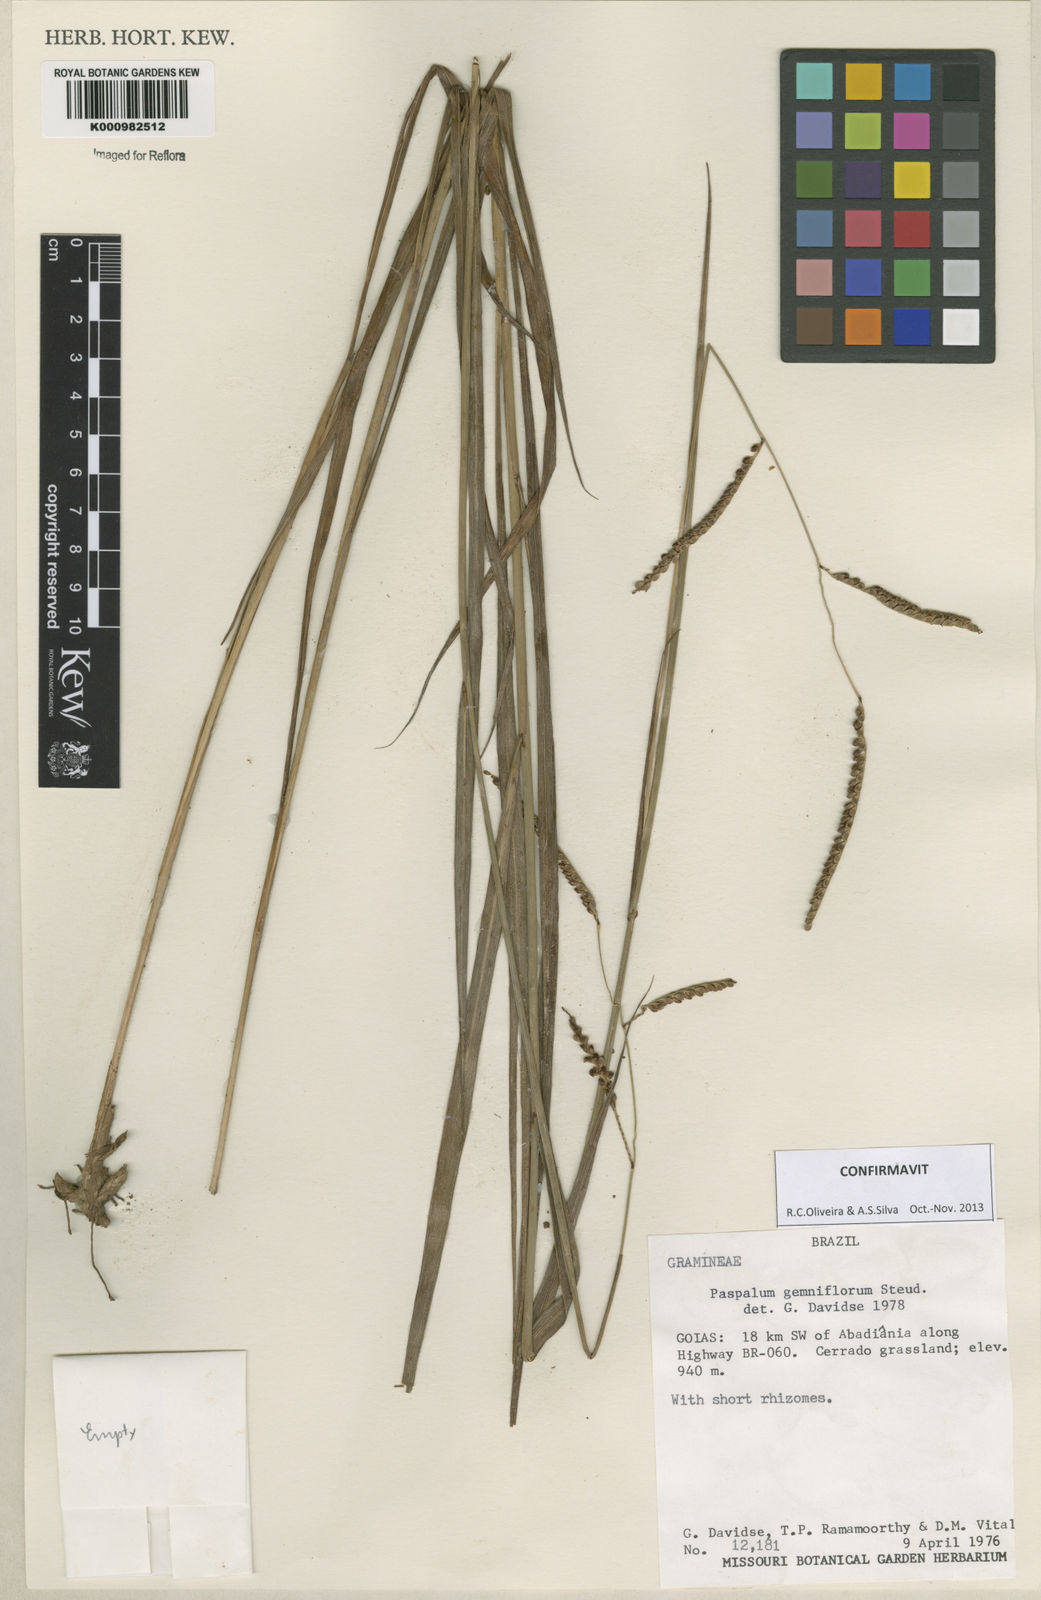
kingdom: Plantae
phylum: Tracheophyta
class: Liliopsida
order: Poales
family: Poaceae
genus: Paspalum
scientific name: Paspalum geminiflorum
